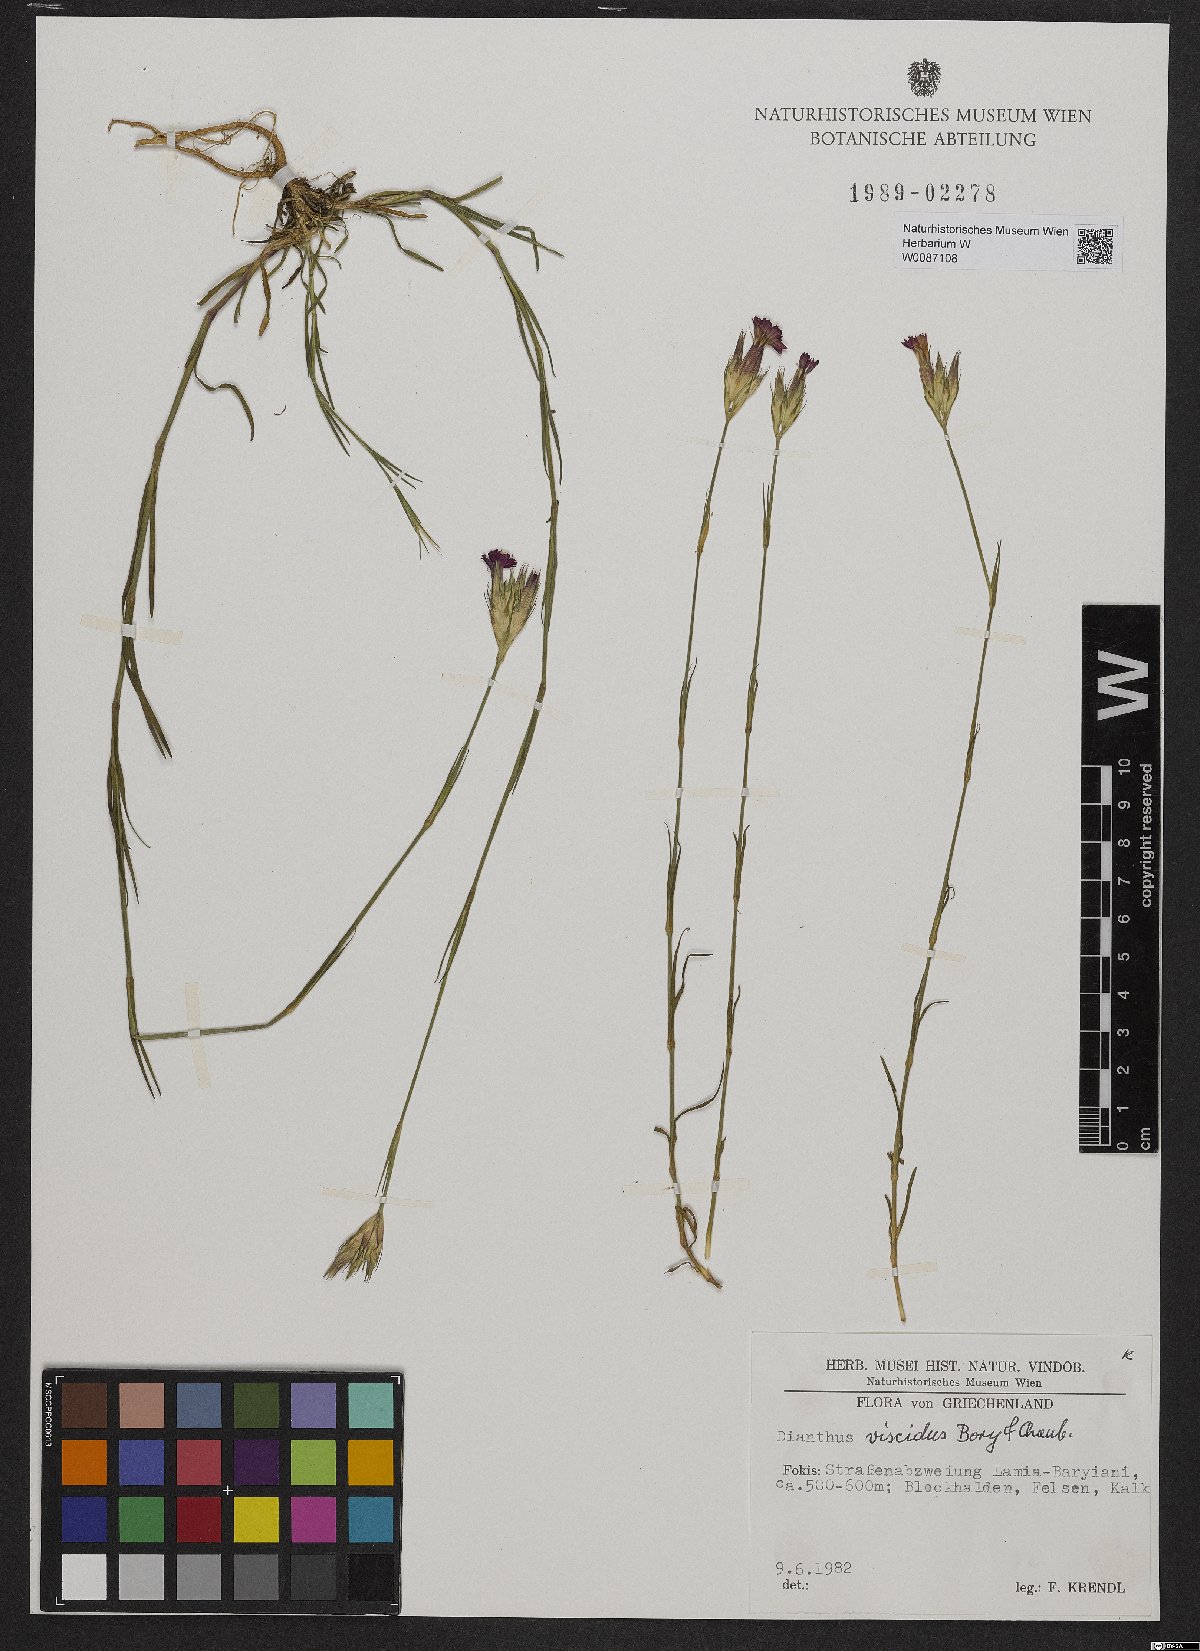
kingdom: Plantae
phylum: Tracheophyta
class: Magnoliopsida
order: Caryophyllales
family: Caryophyllaceae
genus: Dianthus
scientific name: Dianthus viscidus
